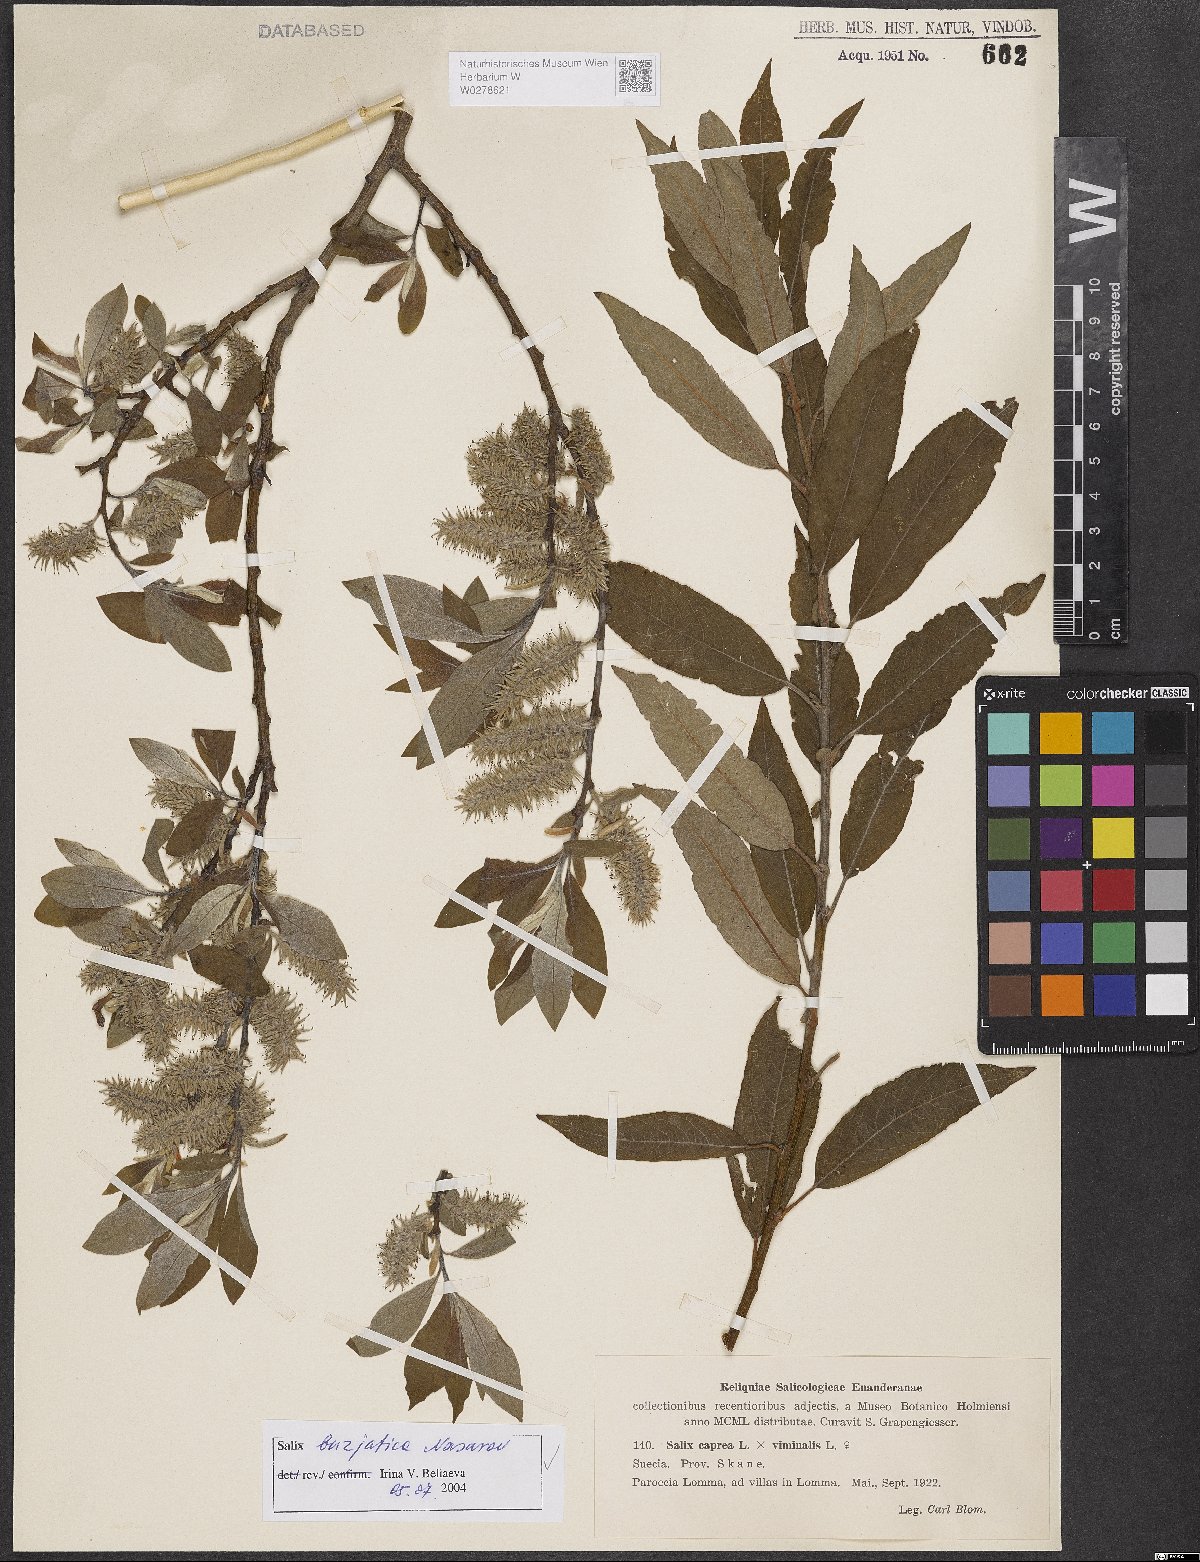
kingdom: Plantae
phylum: Tracheophyta
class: Magnoliopsida
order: Malpighiales
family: Salicaceae
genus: Salix
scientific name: Salix gmelinii
